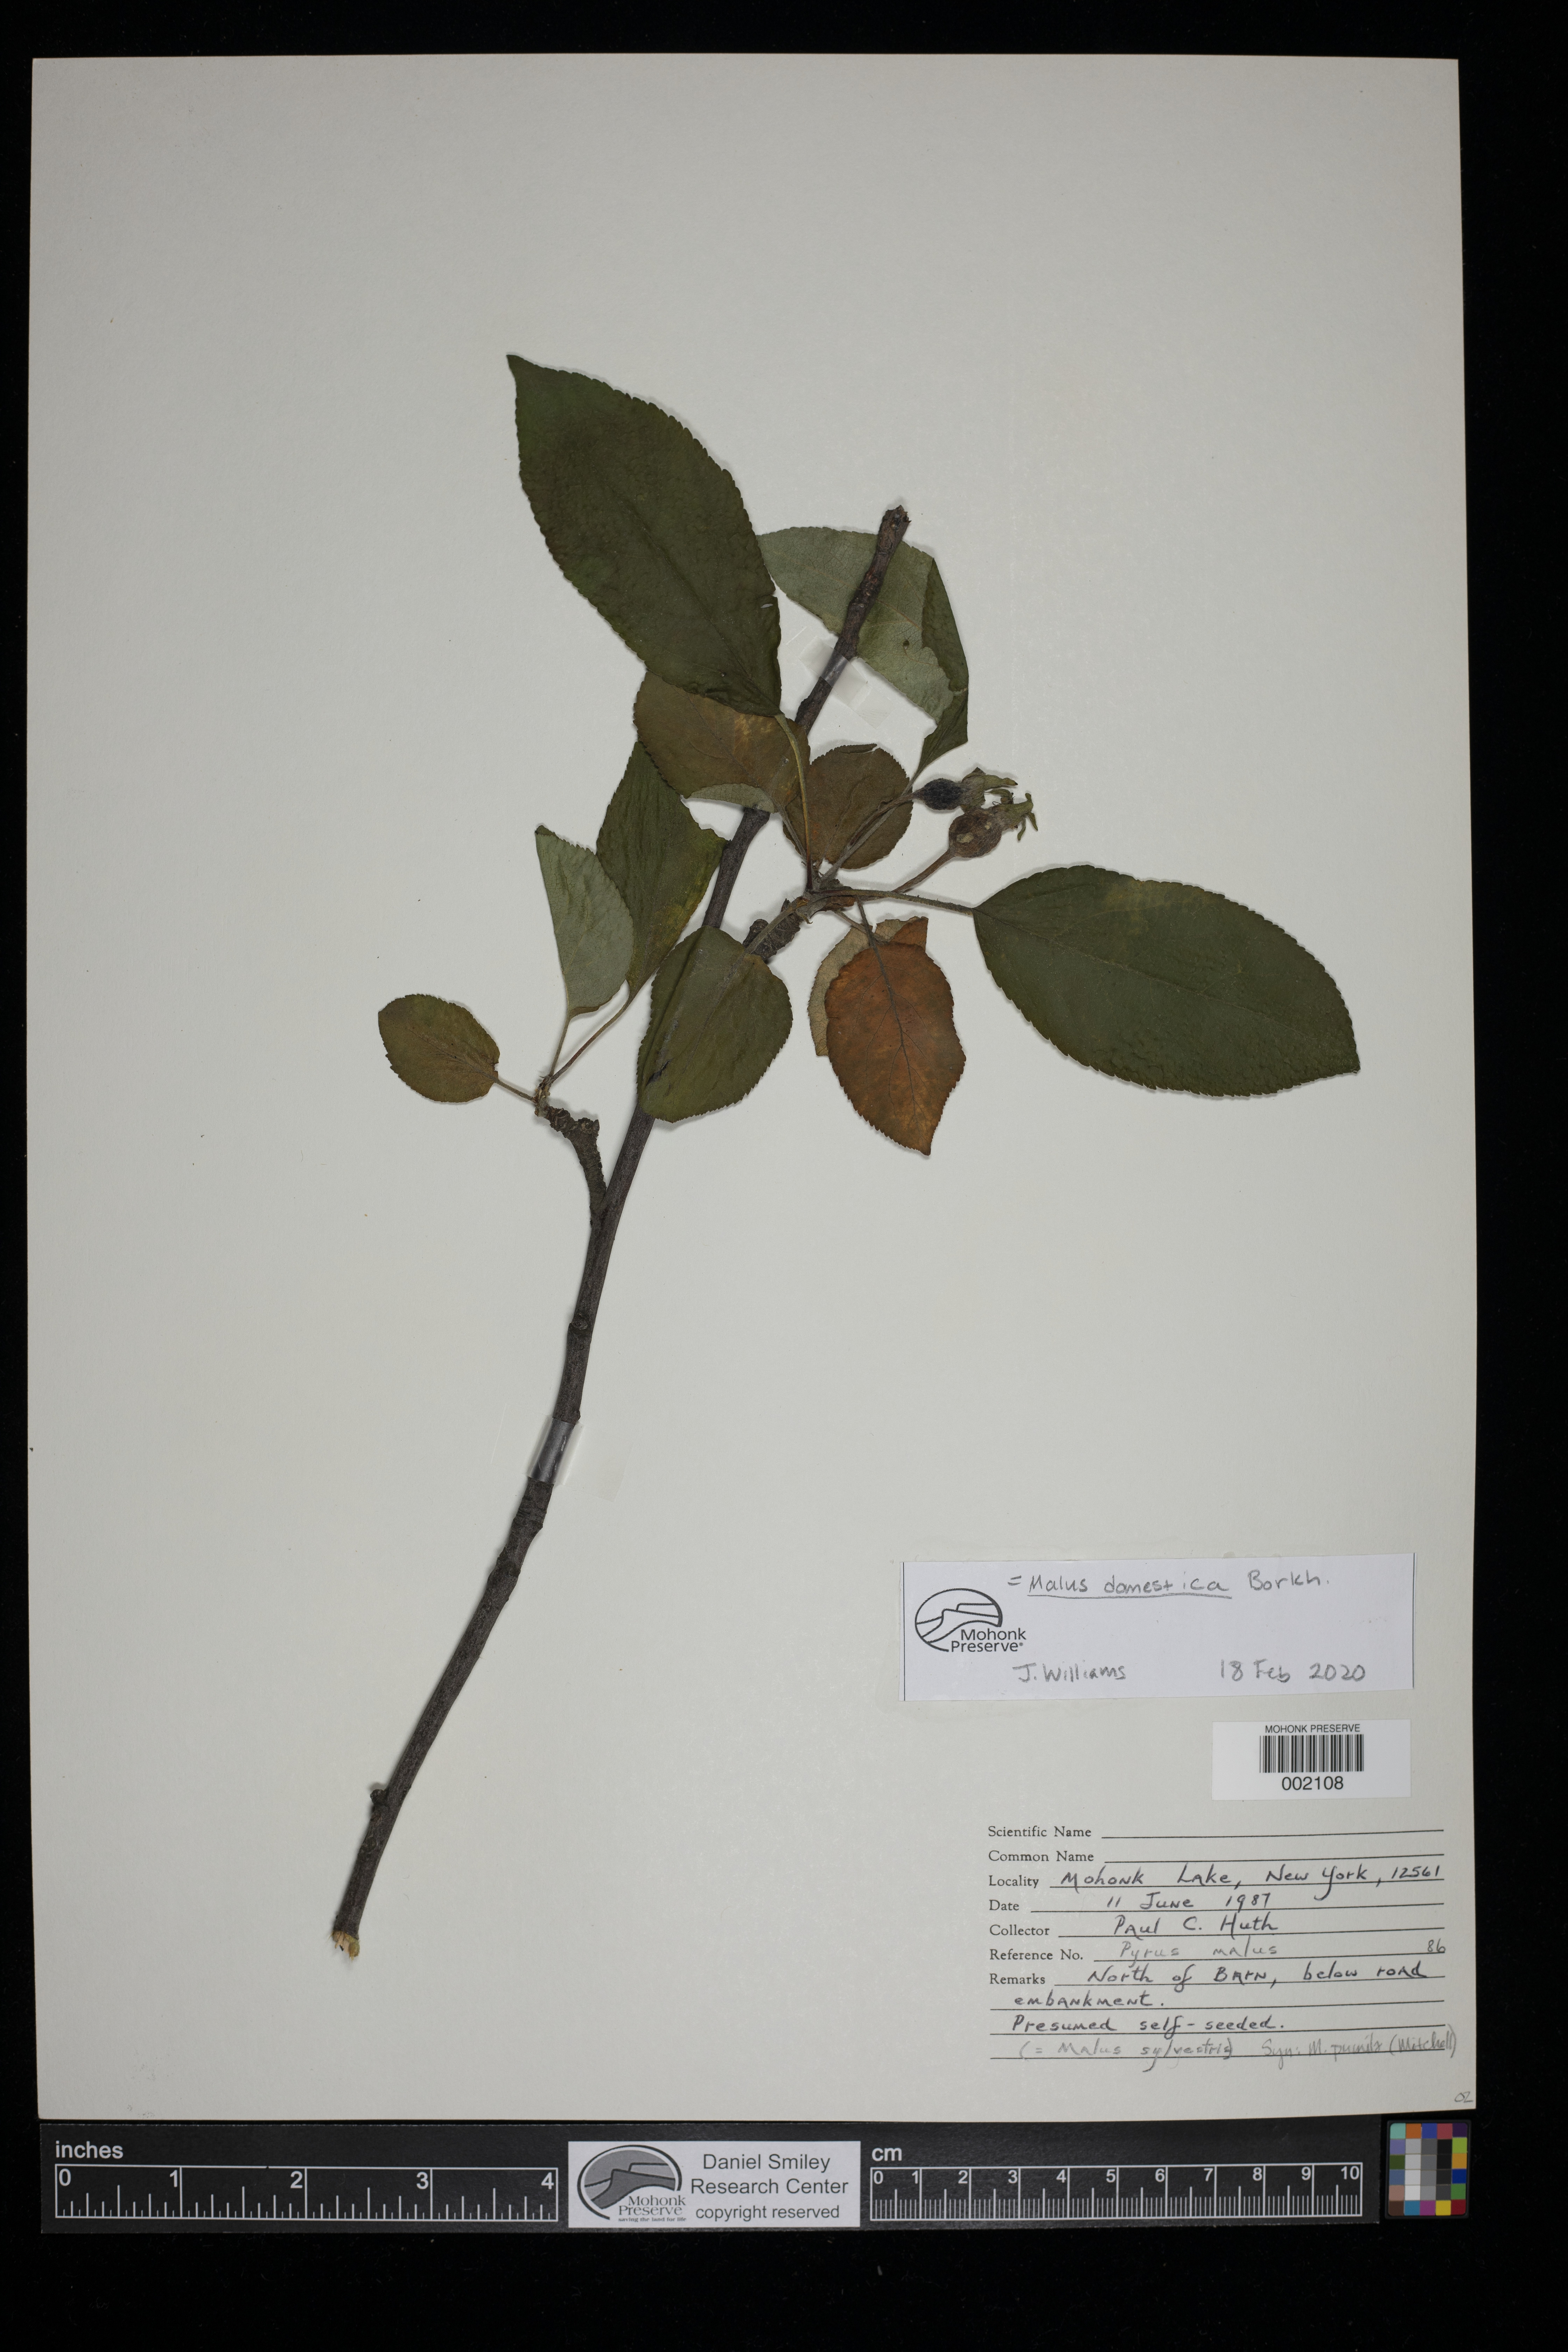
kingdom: Plantae
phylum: Tracheophyta
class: Magnoliopsida
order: Rosales
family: Rosaceae
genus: Malus
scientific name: Malus domestica
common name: Apple
